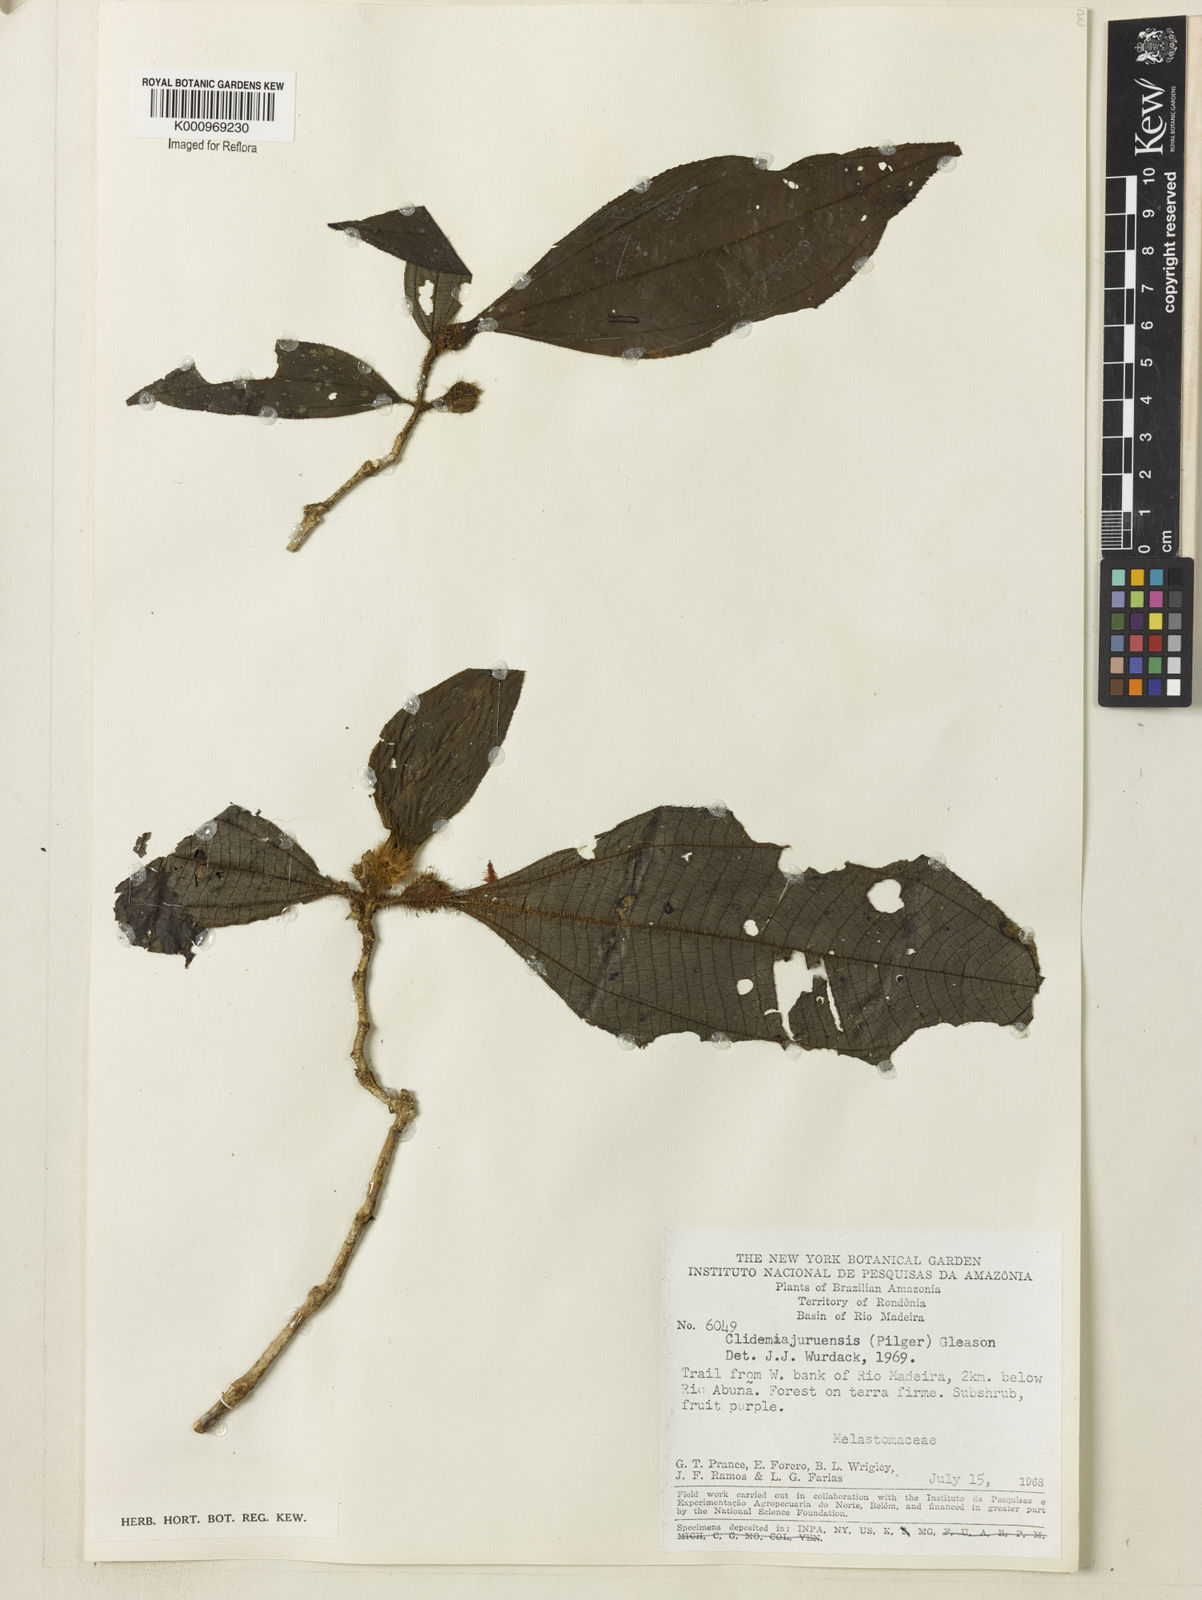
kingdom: Plantae
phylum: Tracheophyta
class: Magnoliopsida
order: Myrtales
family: Melastomataceae
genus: Miconia
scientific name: Miconia formicojuruensis
